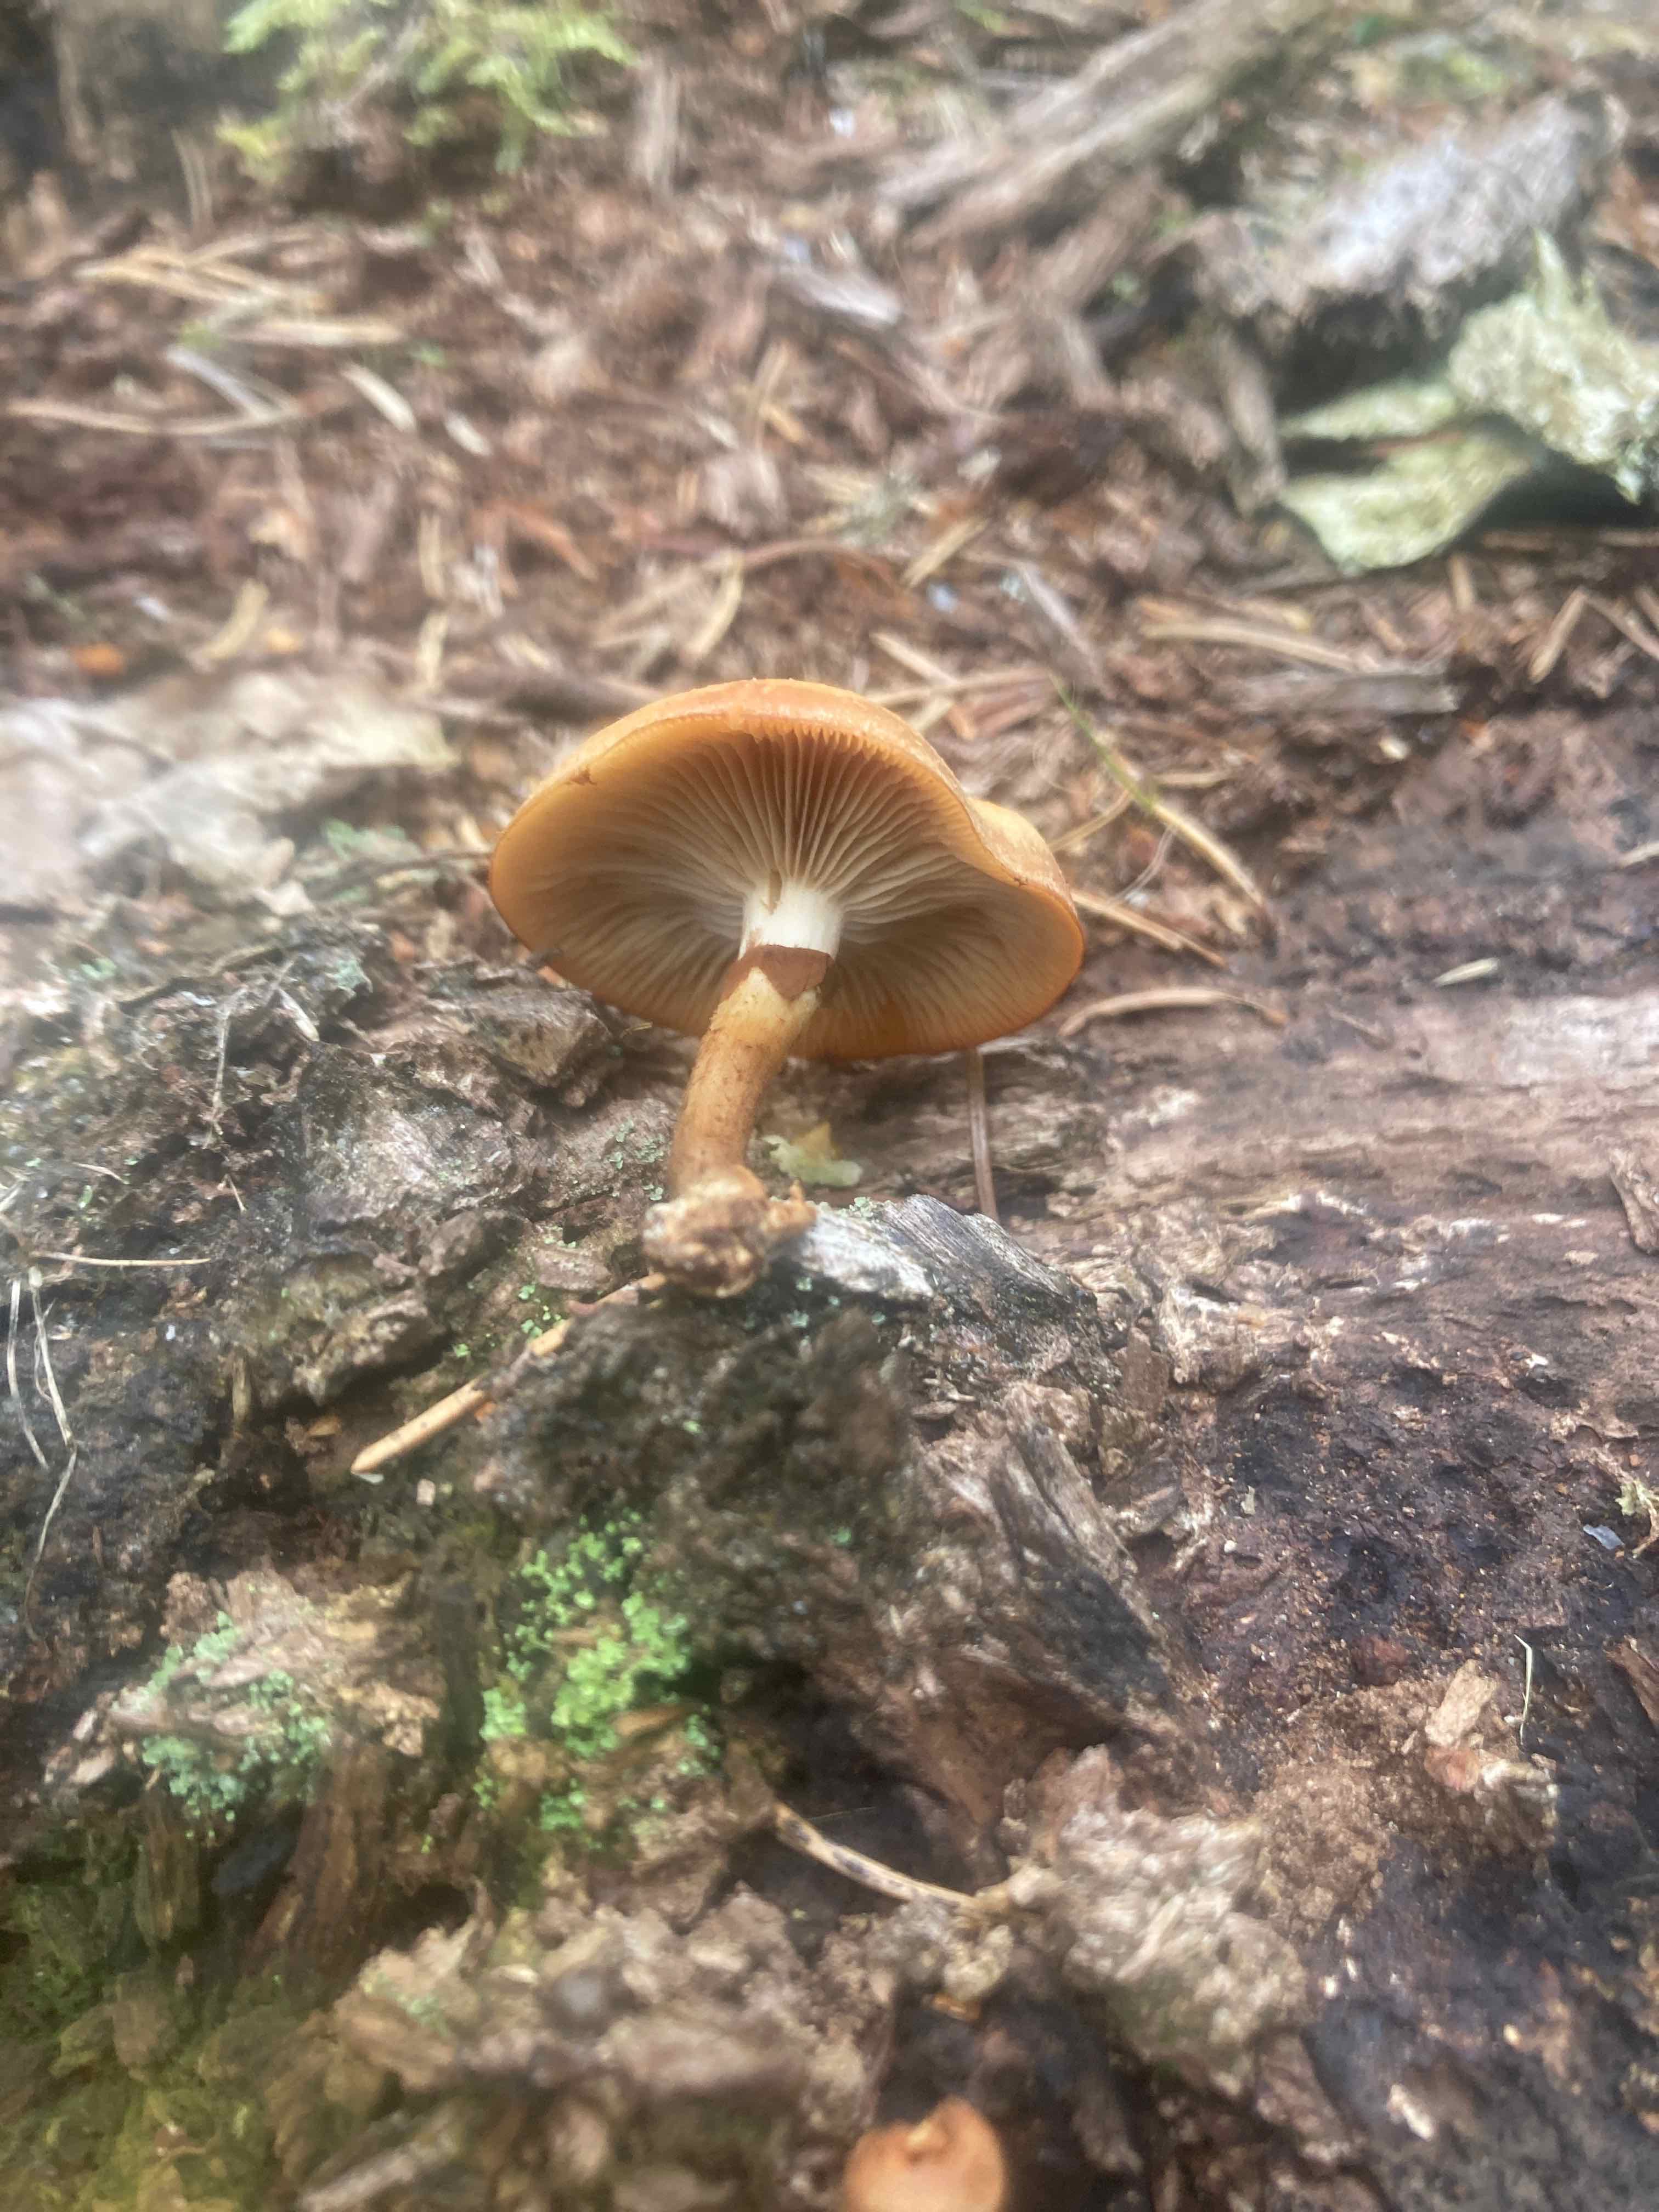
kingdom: Fungi
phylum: Basidiomycota
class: Agaricomycetes
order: Agaricales
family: Strophariaceae
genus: Kuehneromyces
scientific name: Kuehneromyces mutabilis
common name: foranderlig skælhat
